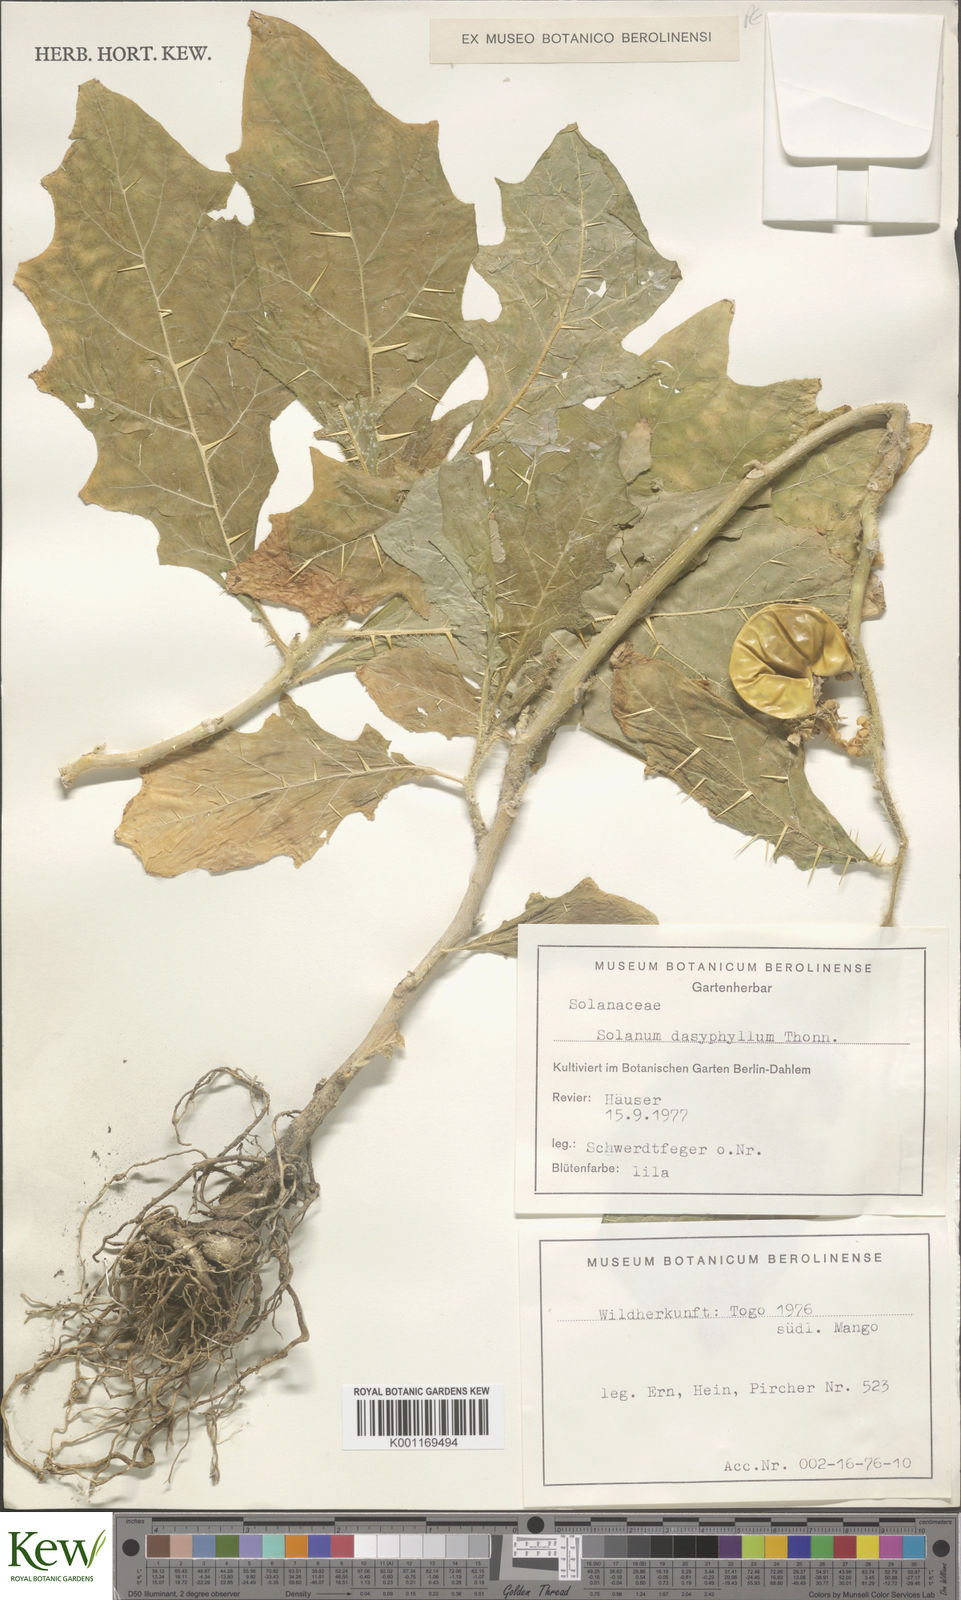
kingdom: Plantae
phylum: Tracheophyta
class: Magnoliopsida
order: Solanales
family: Solanaceae
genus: Solanum
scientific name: Solanum dasyphyllum
